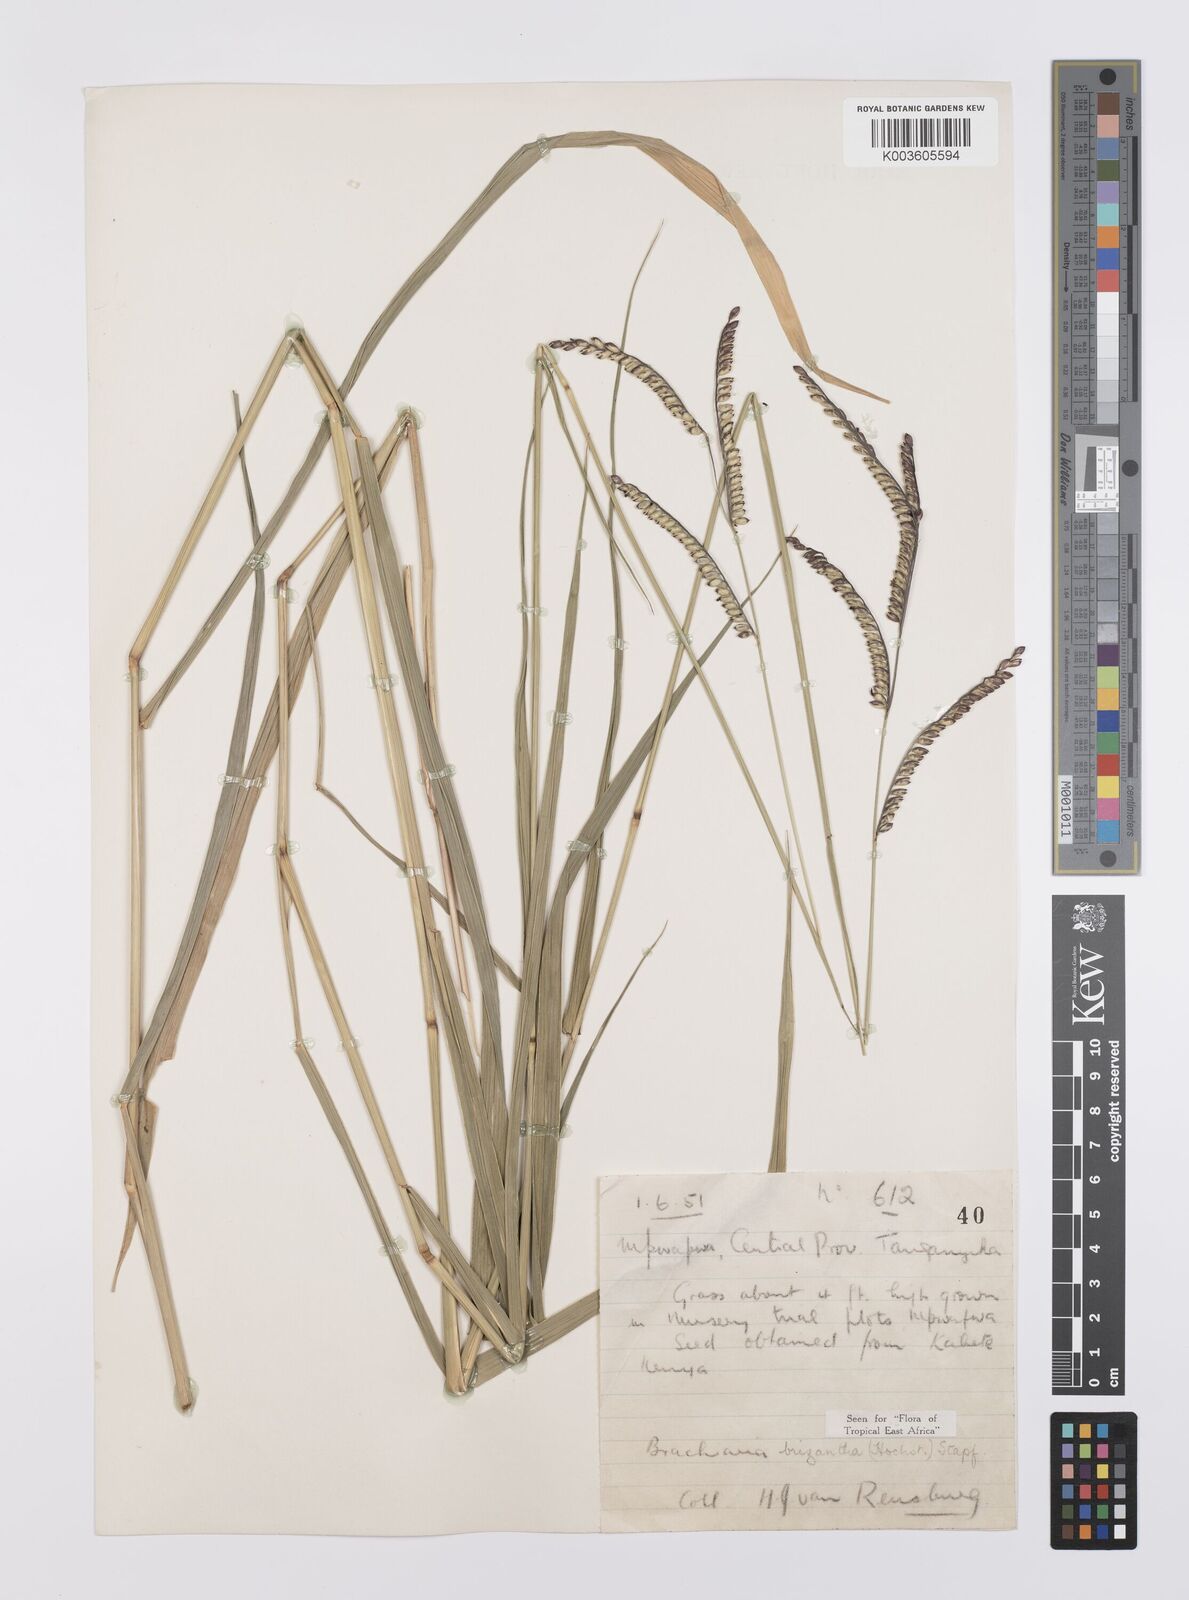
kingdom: Plantae
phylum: Tracheophyta
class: Liliopsida
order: Poales
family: Poaceae
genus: Urochloa
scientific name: Urochloa brizantha
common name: Palisade signalgrass
